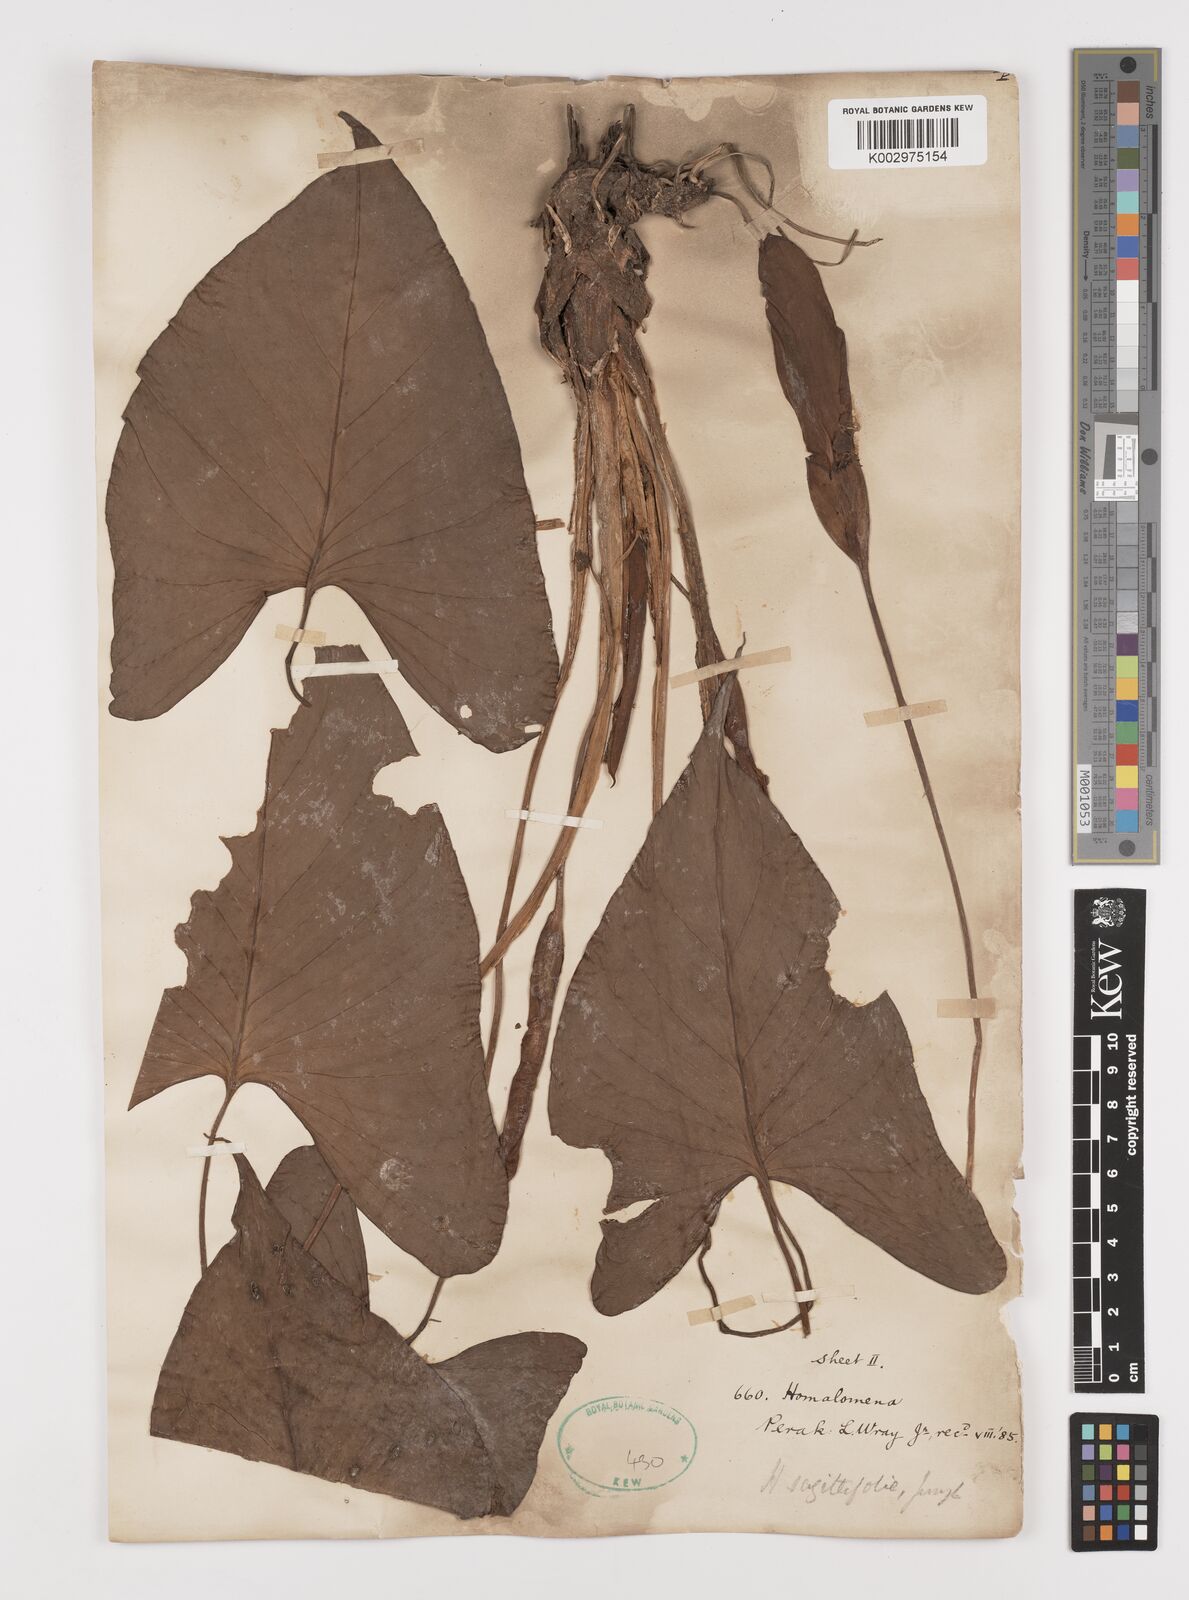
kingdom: Plantae
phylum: Tracheophyta
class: Liliopsida
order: Alismatales
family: Araceae
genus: Homalomena
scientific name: Homalomena rostrata
